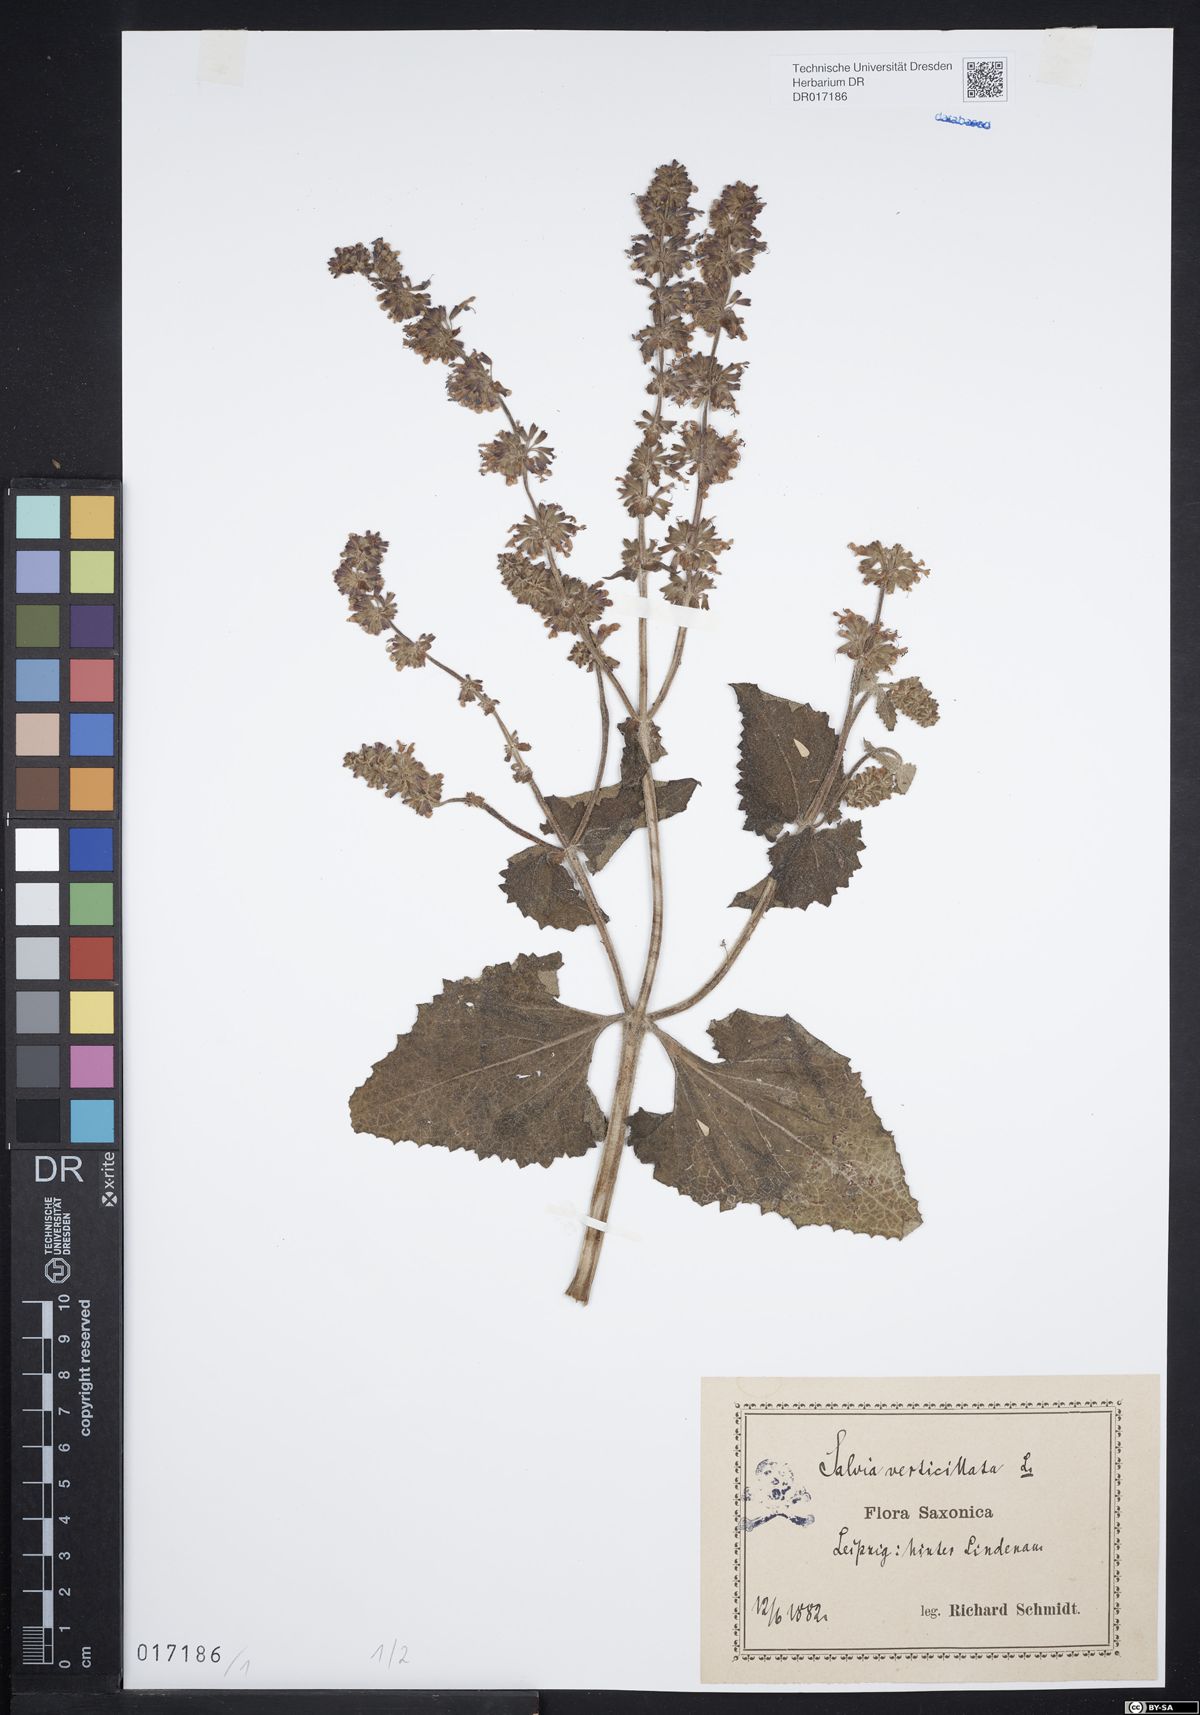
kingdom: Plantae
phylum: Tracheophyta
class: Magnoliopsida
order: Lamiales
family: Lamiaceae
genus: Salvia
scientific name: Salvia verticillata
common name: Whorled clary
